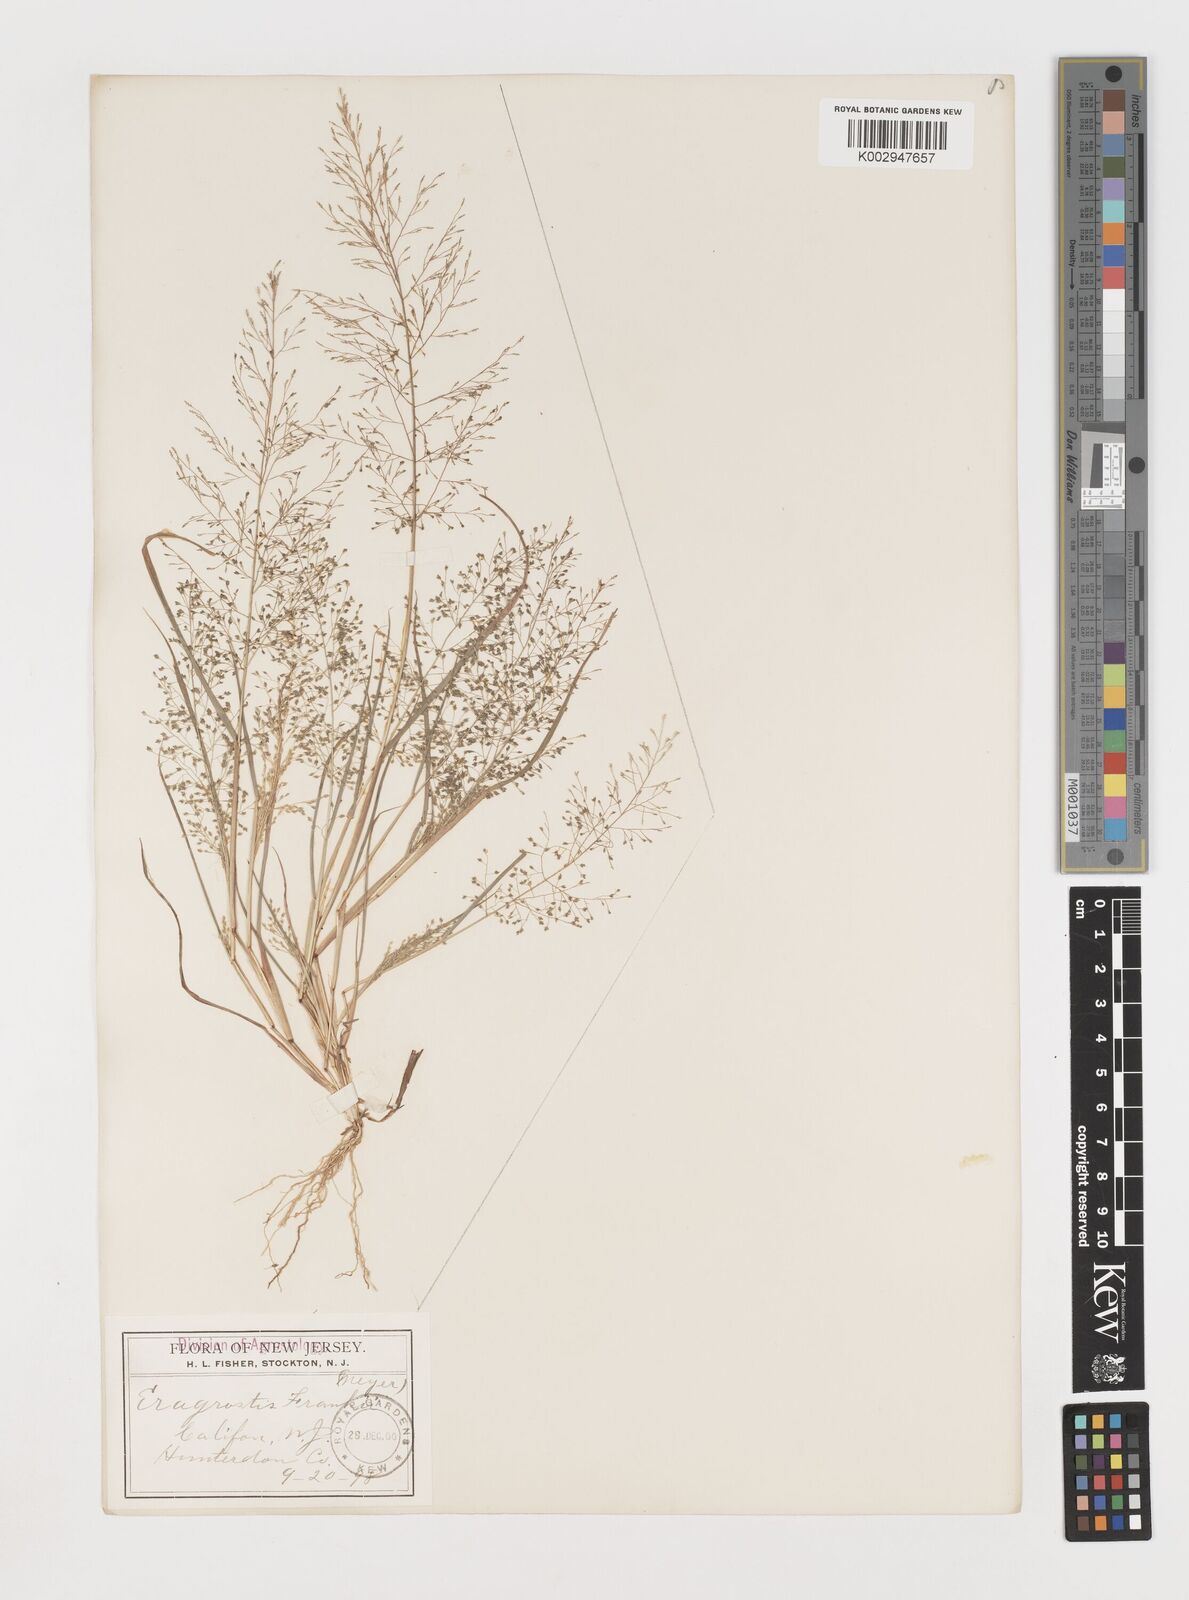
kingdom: Plantae
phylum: Tracheophyta
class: Liliopsida
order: Poales
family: Poaceae
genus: Eragrostis
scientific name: Eragrostis frankii
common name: Frank's lovegrass
